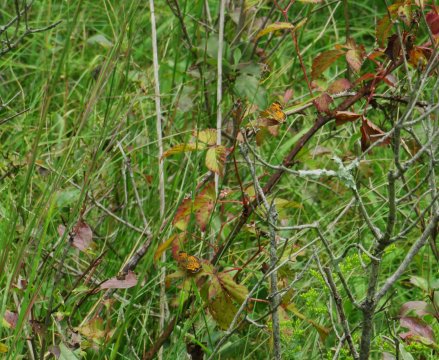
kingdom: Animalia
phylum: Arthropoda
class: Insecta
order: Lepidoptera
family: Nymphalidae
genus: Phyciodes
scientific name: Phyciodes tharos
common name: Pearl Crescent
